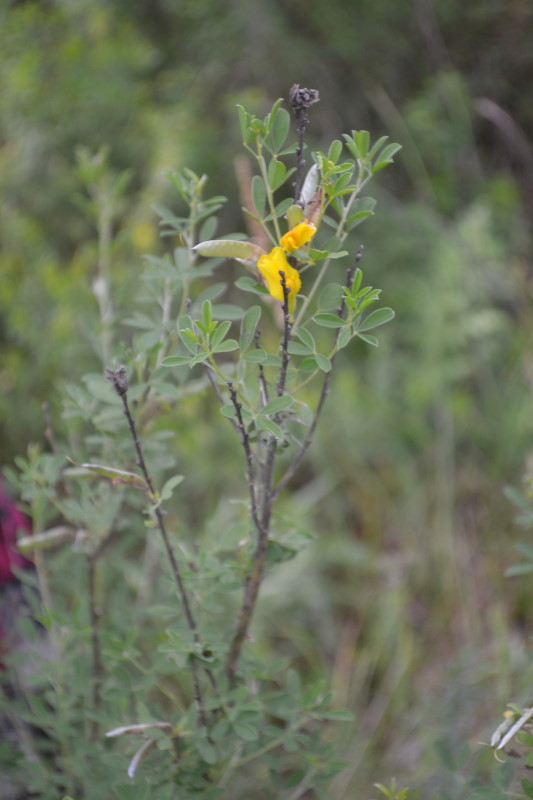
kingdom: Plantae
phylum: Tracheophyta
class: Magnoliopsida
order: Fabales
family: Fabaceae
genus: Chamaecytisus
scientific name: Chamaecytisus ruthenicus
